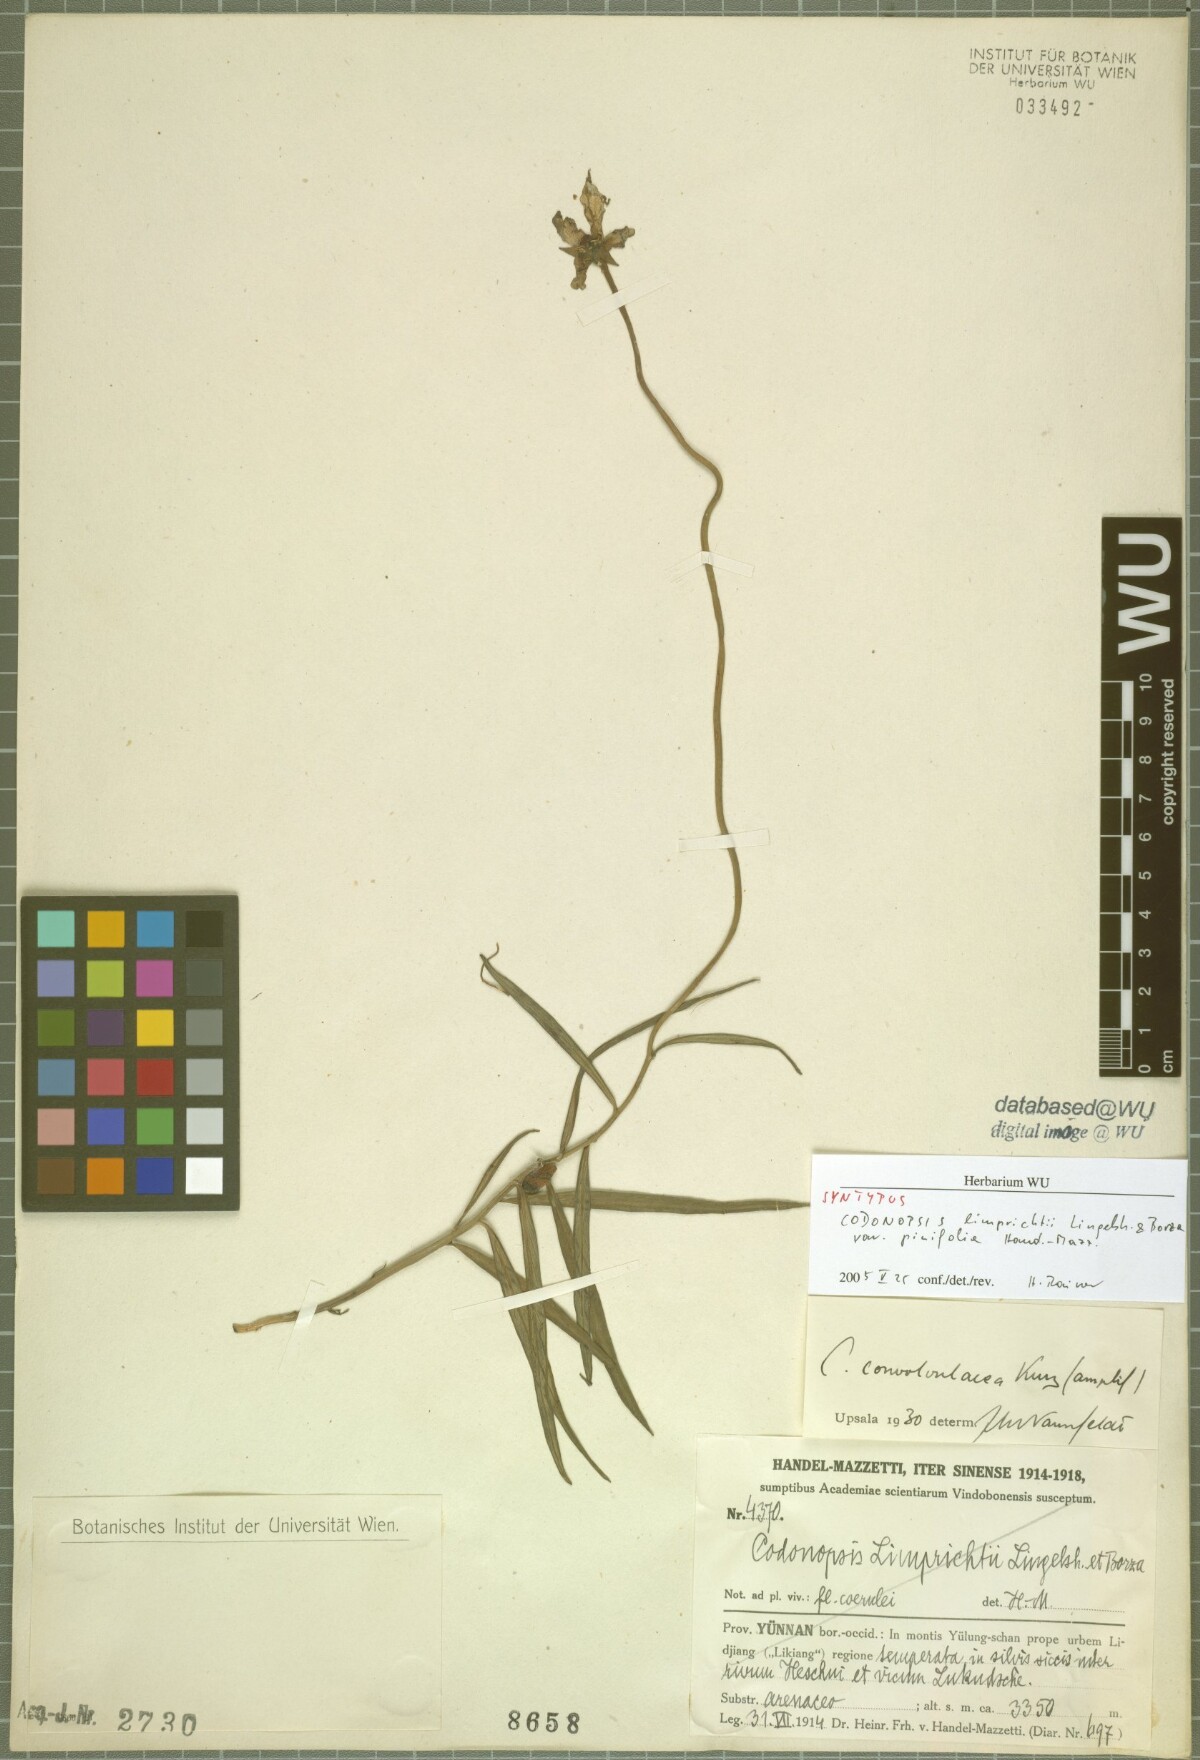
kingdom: Plantae
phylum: Tracheophyta
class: Magnoliopsida
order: Asterales
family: Campanulaceae
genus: Pseudocodon
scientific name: Pseudocodon graminifolius
